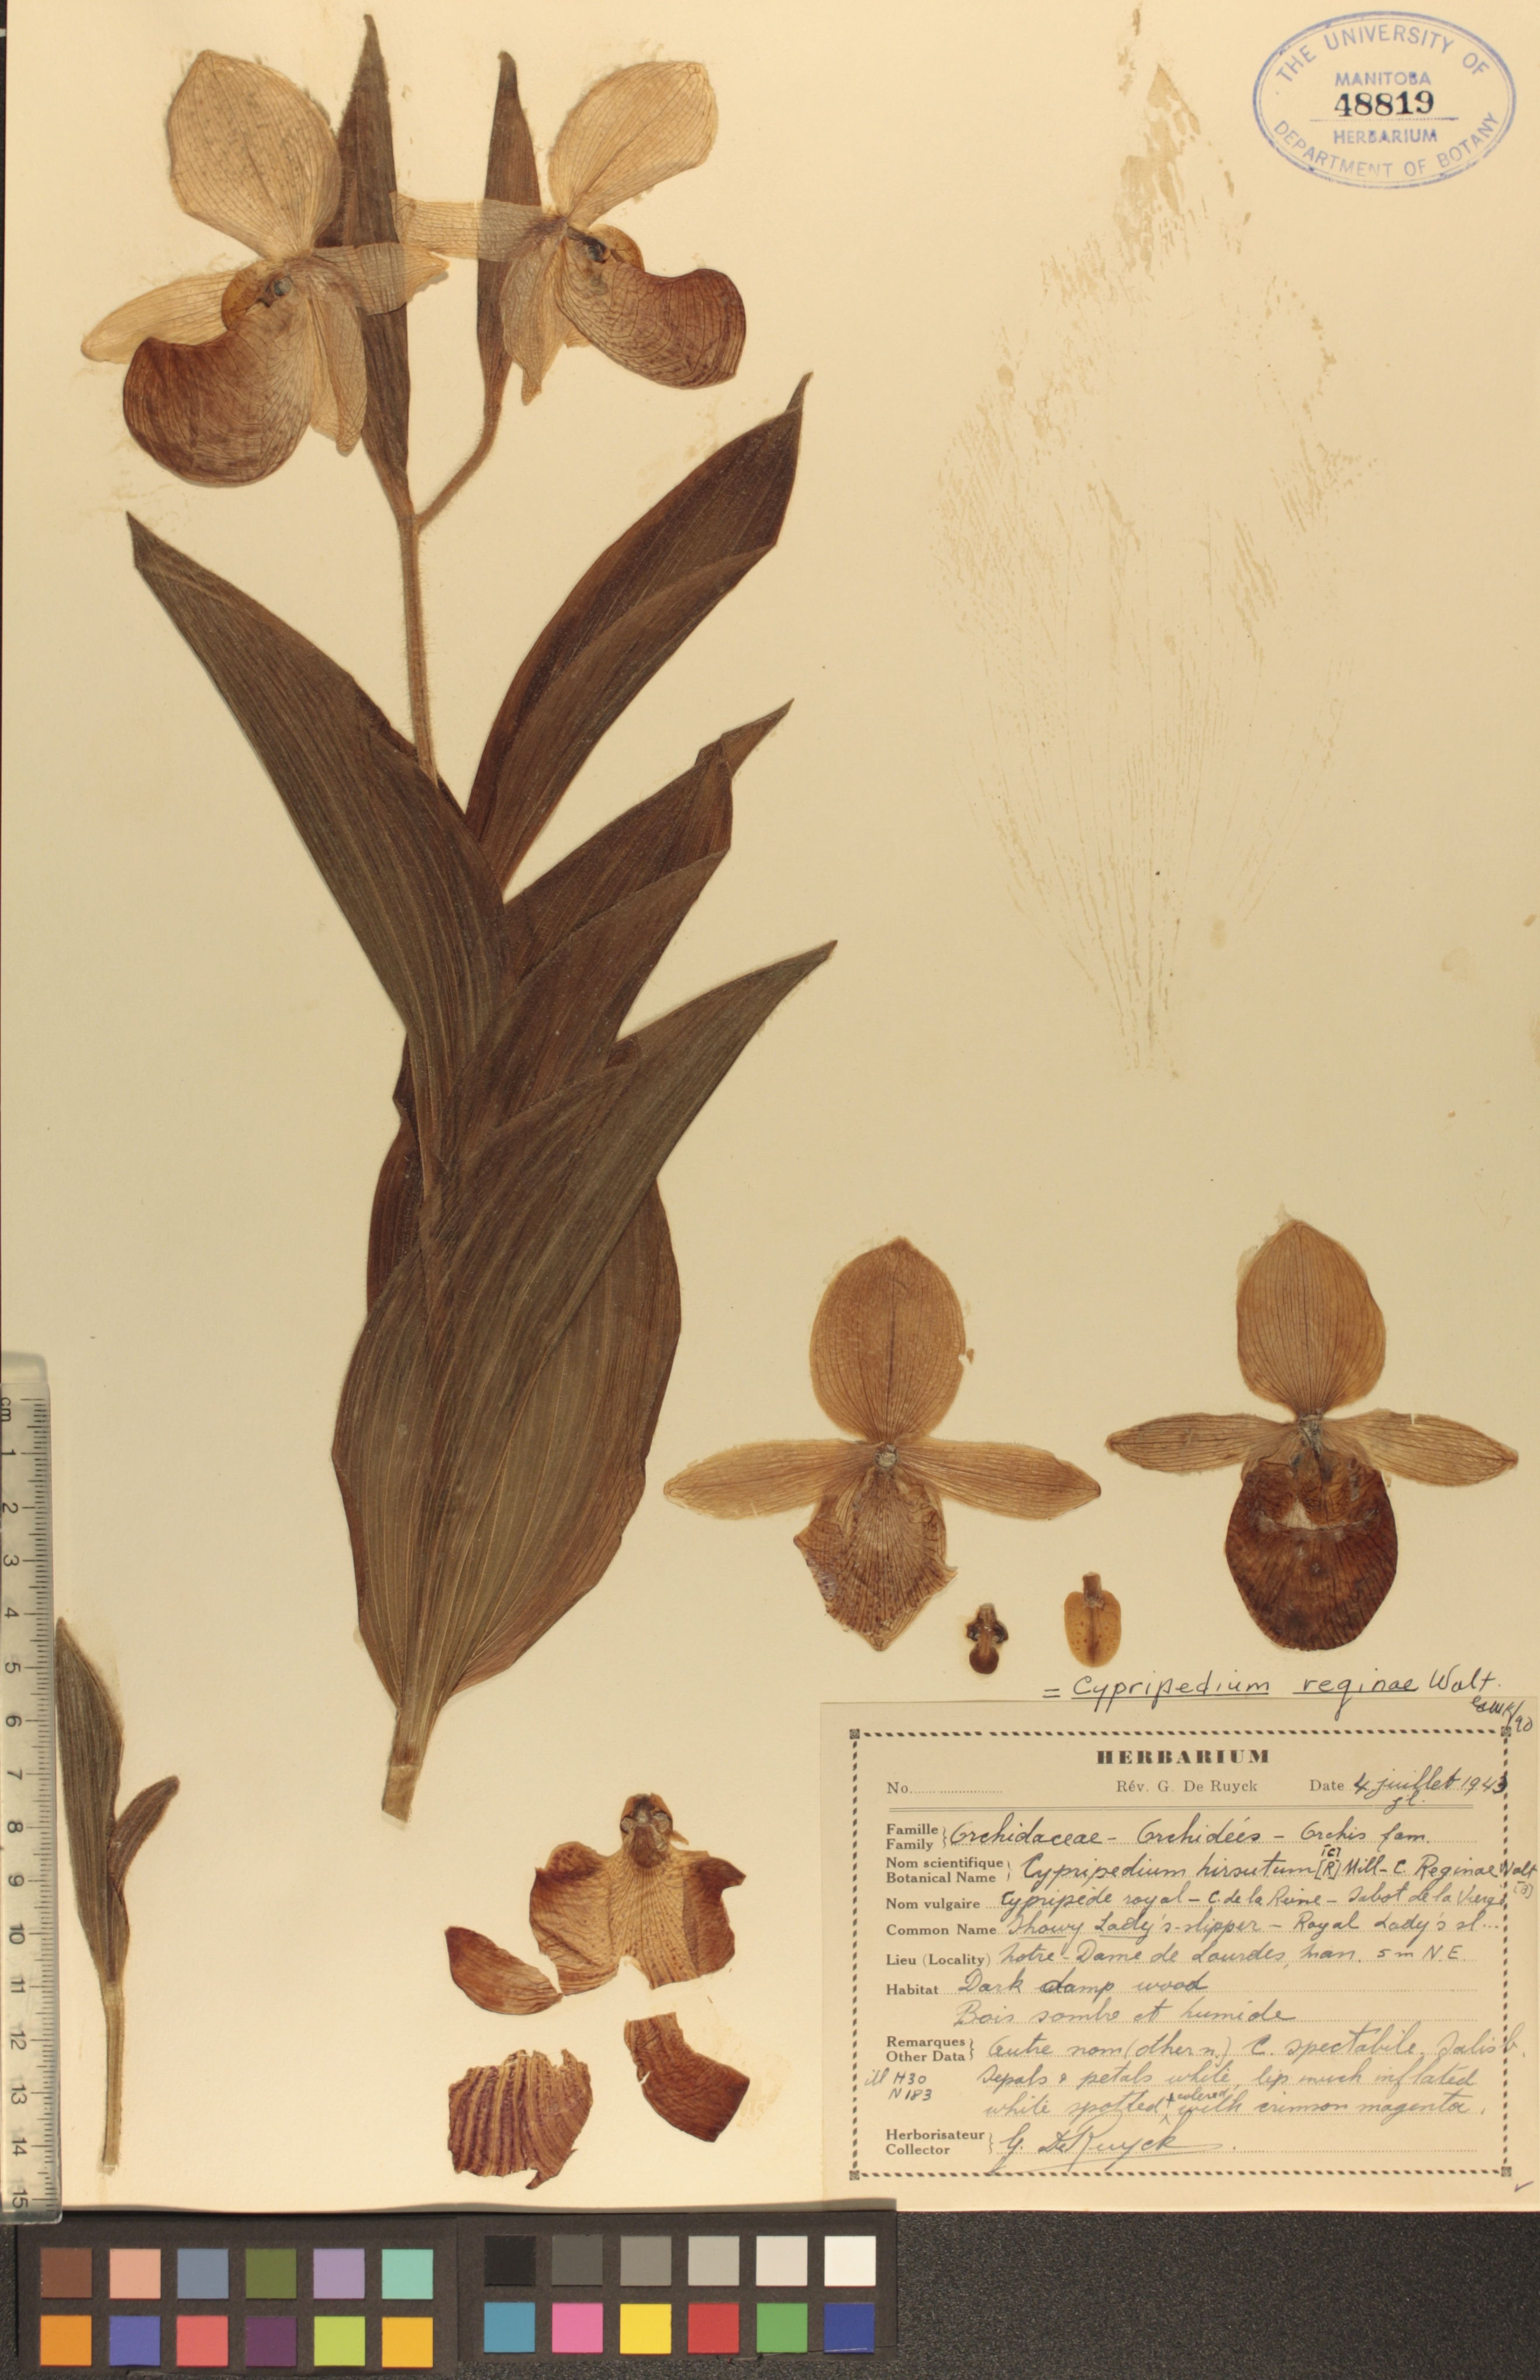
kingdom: Plantae
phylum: Tracheophyta
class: Liliopsida
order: Asparagales
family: Orchidaceae
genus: Cypripedium
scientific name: Cypripedium reginae
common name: Queen lady's-slipper
